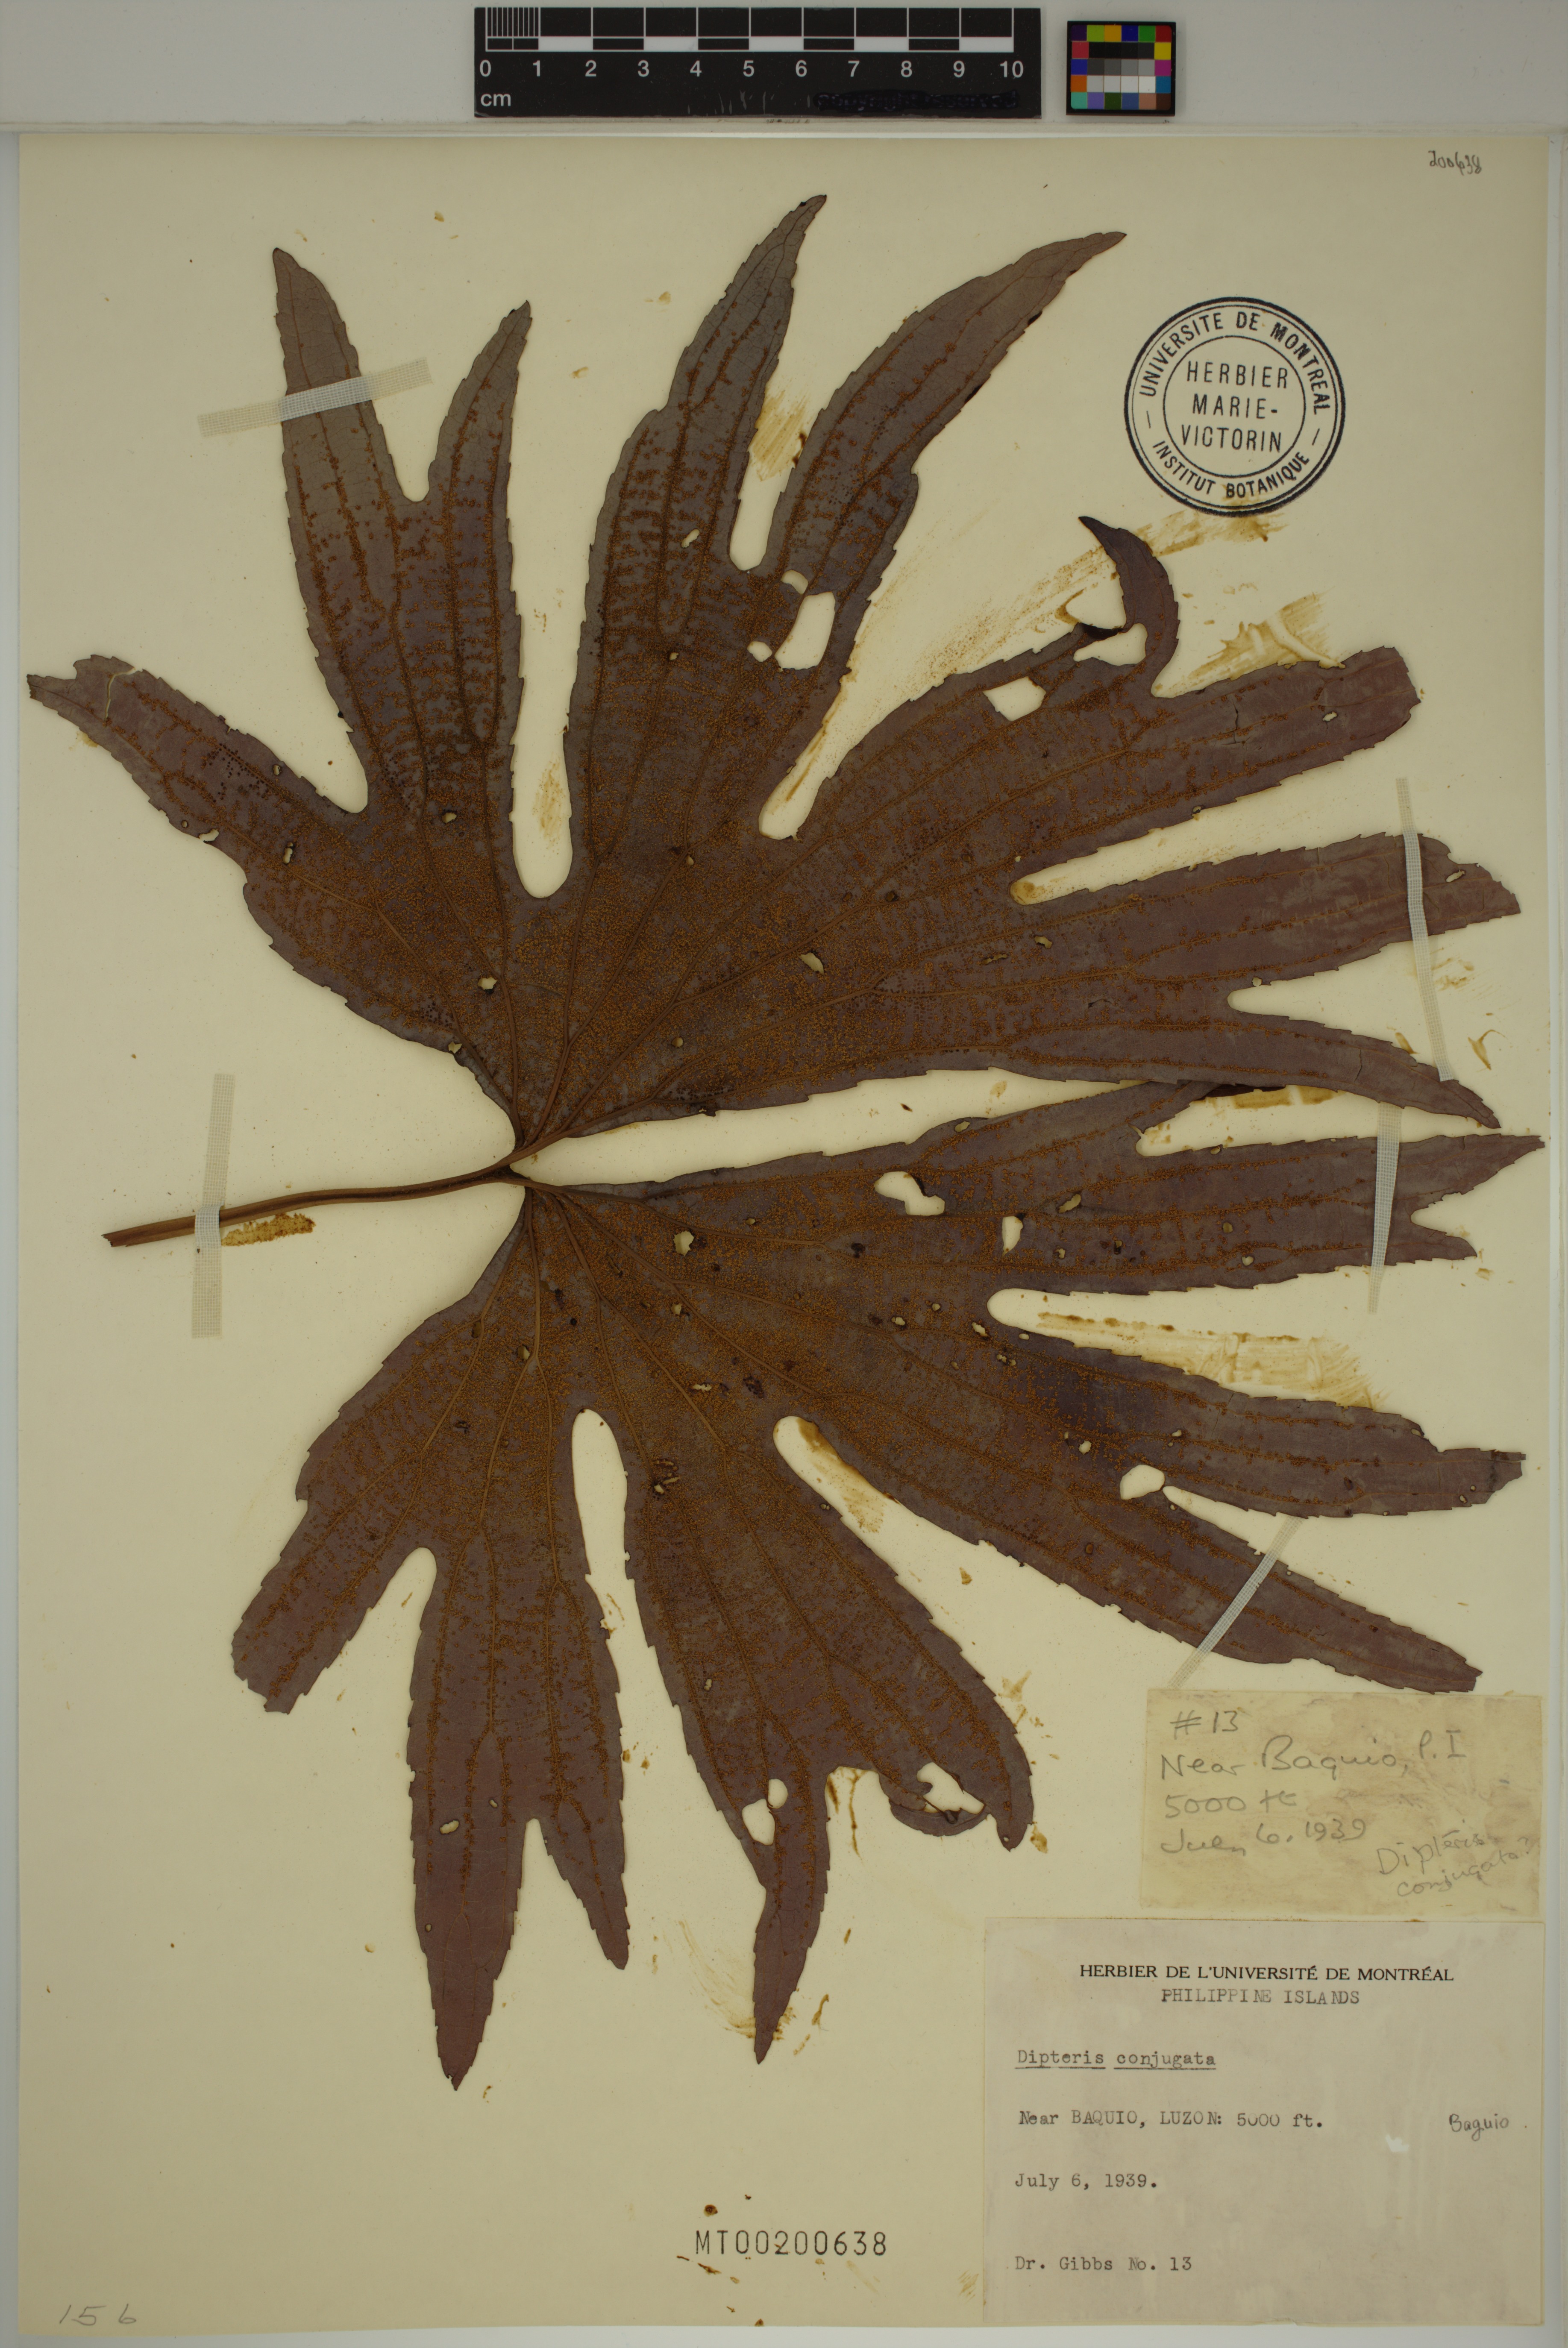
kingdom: Plantae
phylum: Tracheophyta
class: Polypodiopsida
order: Gleicheniales
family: Dipteridaceae
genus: Dipteris
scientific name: Dipteris conjugata
